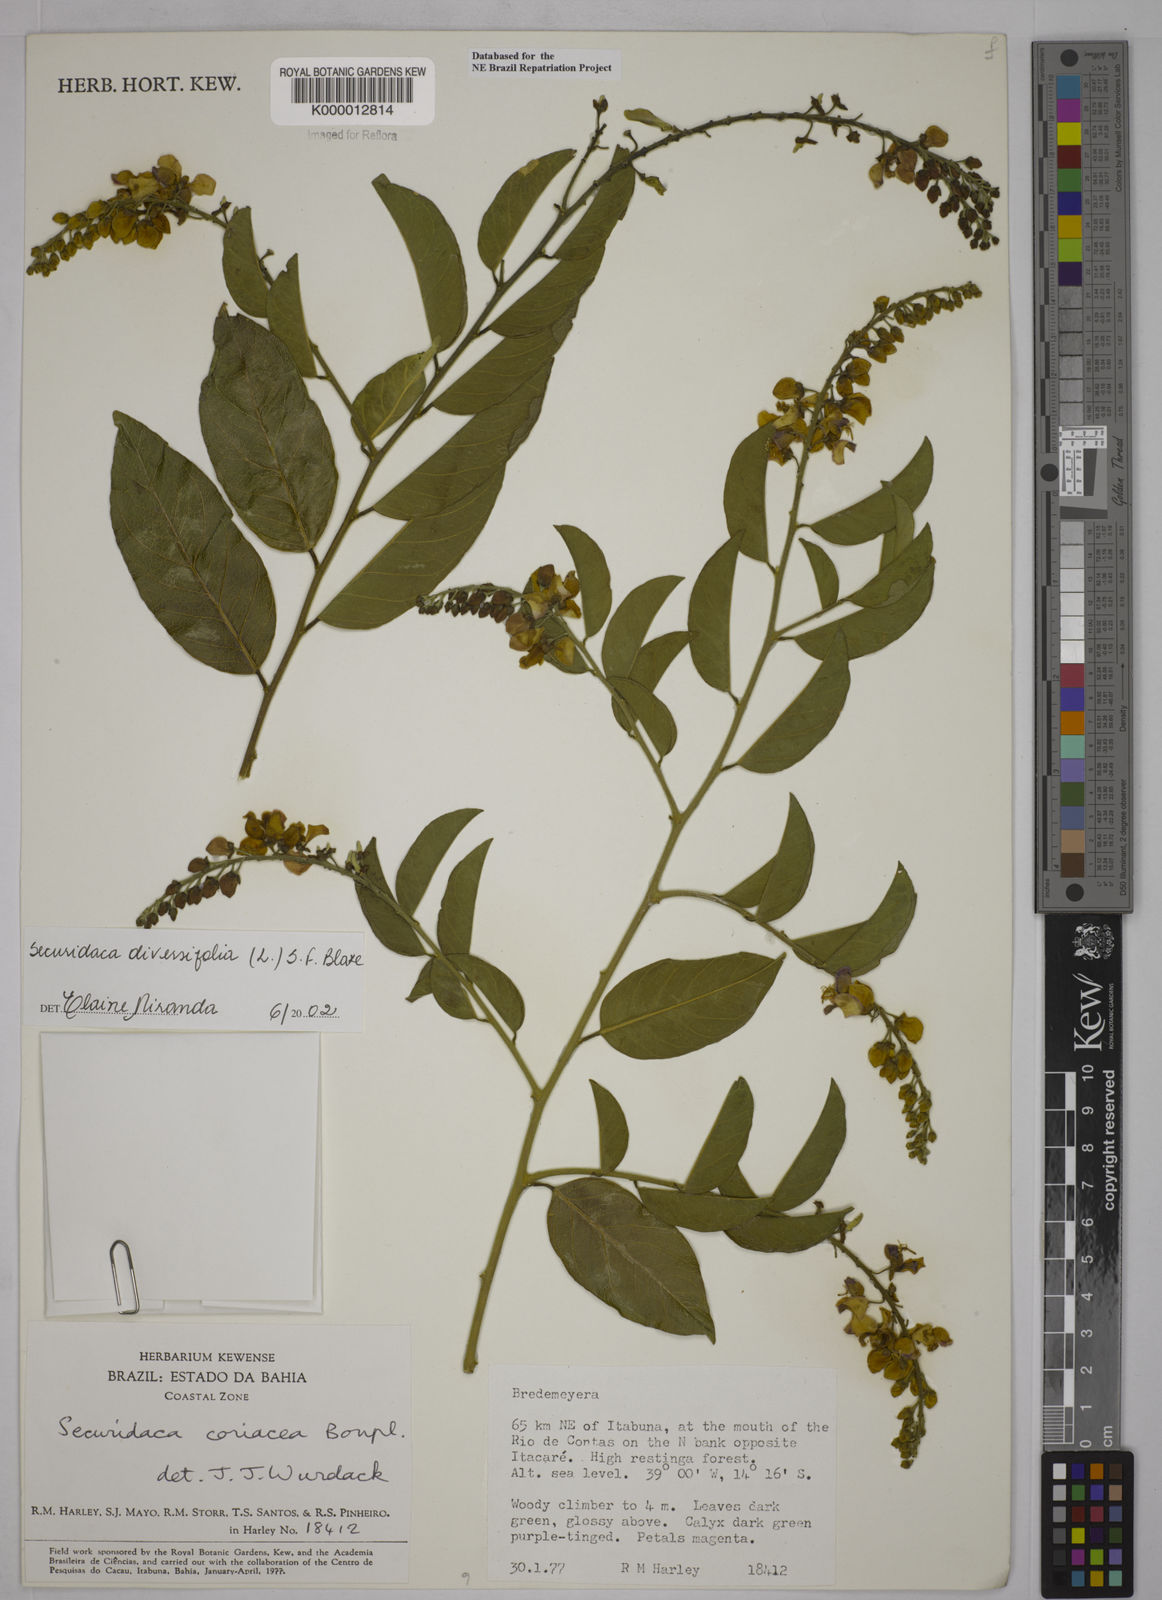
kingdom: Plantae
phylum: Tracheophyta
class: Magnoliopsida
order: Fabales
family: Polygalaceae
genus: Securidaca
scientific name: Securidaca rivinifolia
